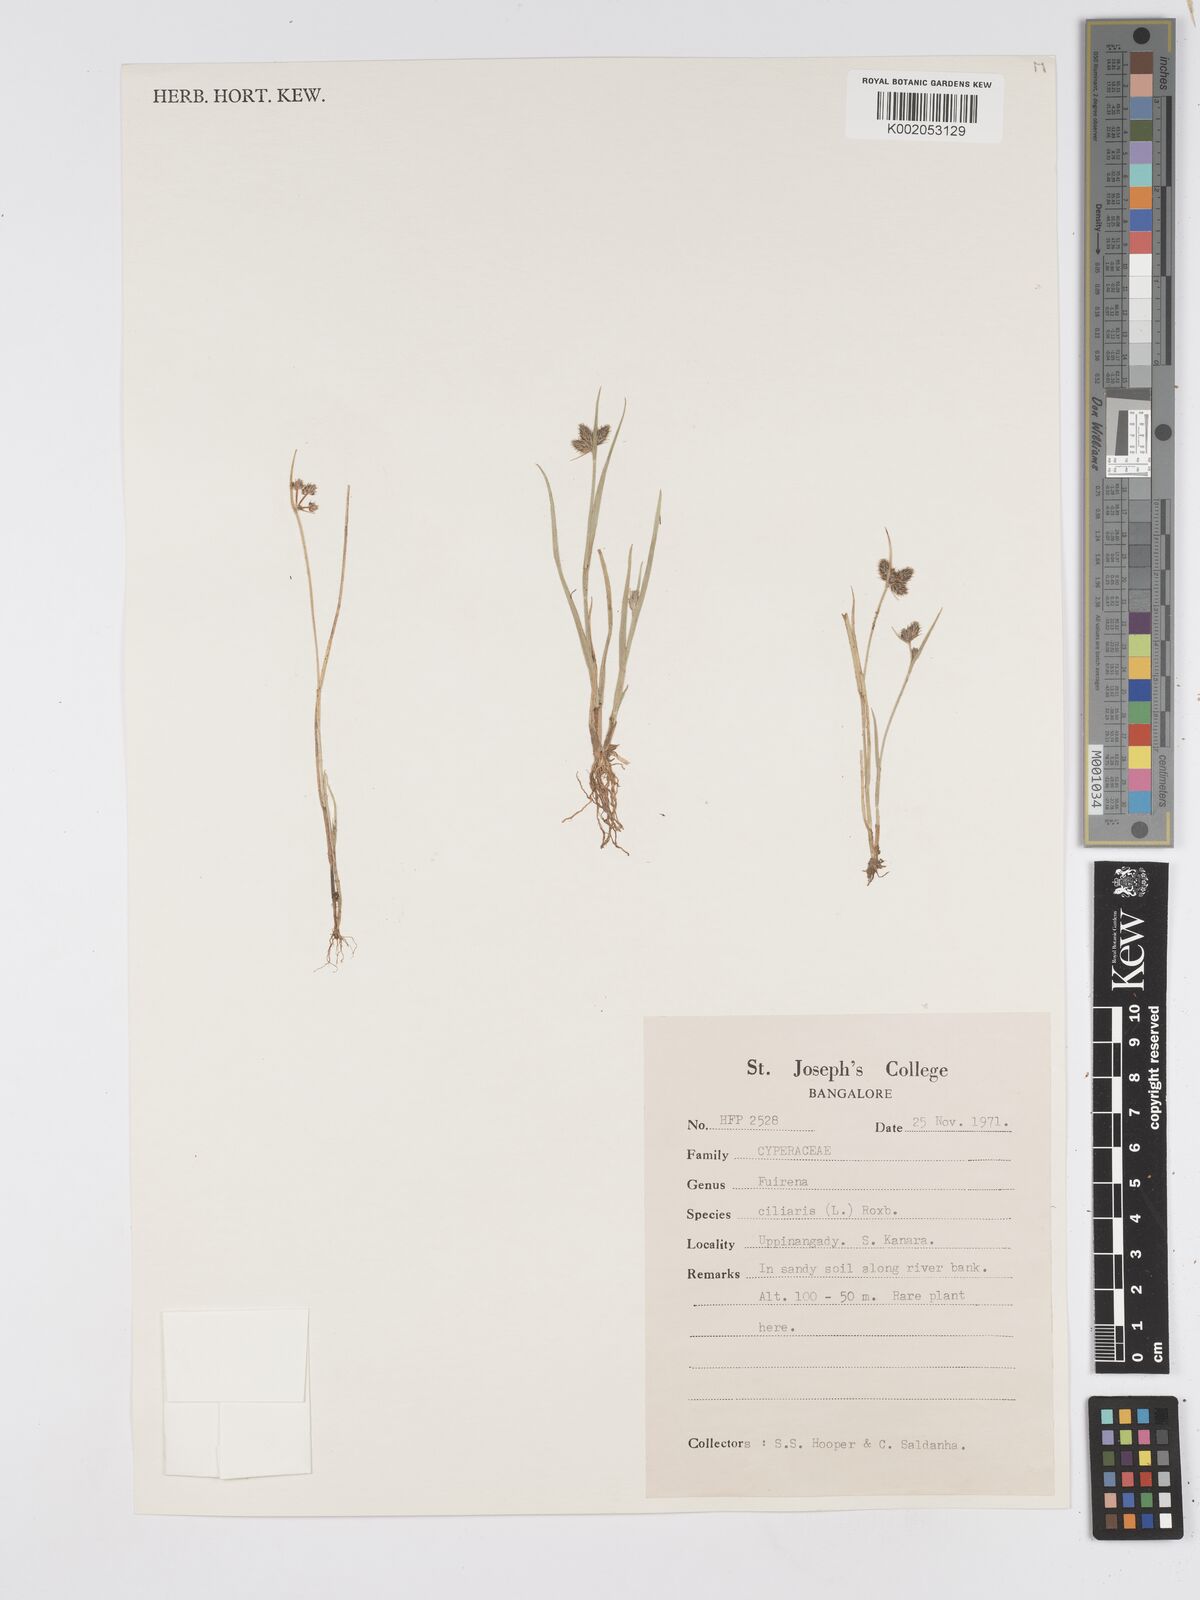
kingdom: Plantae
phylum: Tracheophyta
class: Liliopsida
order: Poales
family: Cyperaceae
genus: Fuirena
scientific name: Fuirena ciliaris
